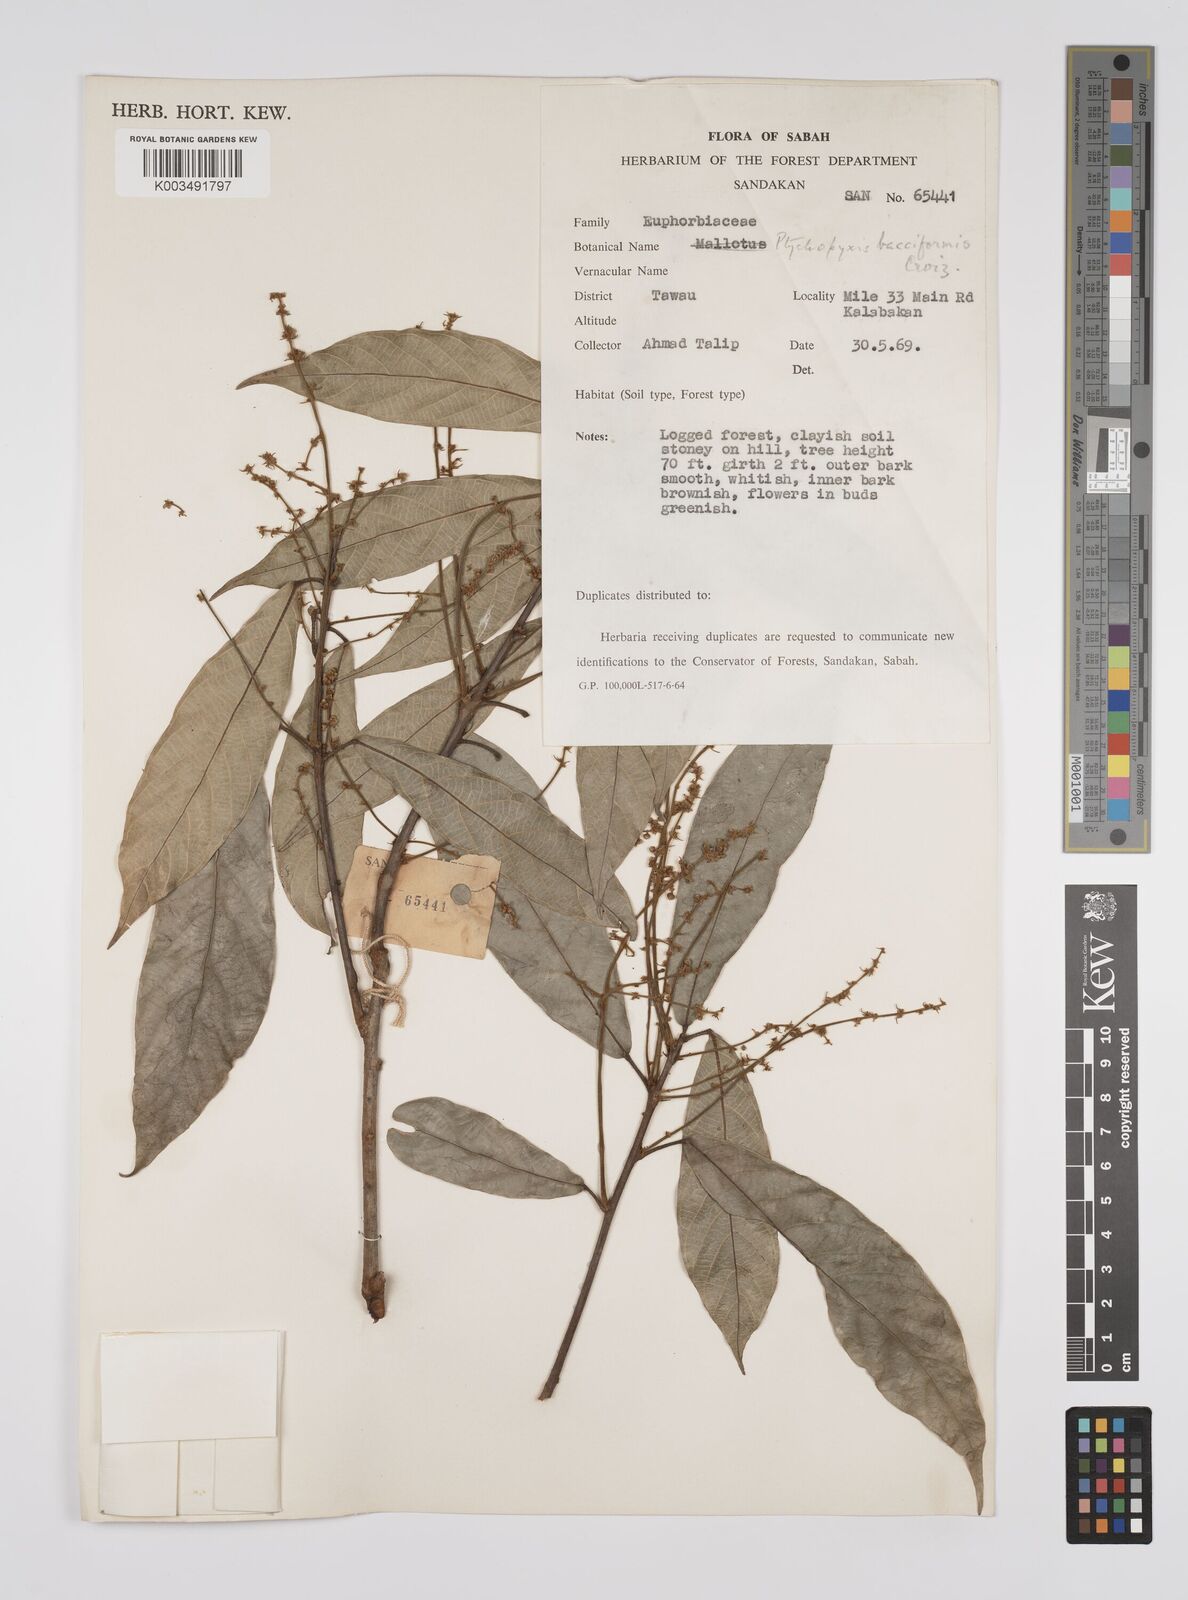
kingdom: Plantae
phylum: Tracheophyta
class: Magnoliopsida
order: Malpighiales
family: Euphorbiaceae
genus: Ptychopyxis
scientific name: Ptychopyxis bacciformis
